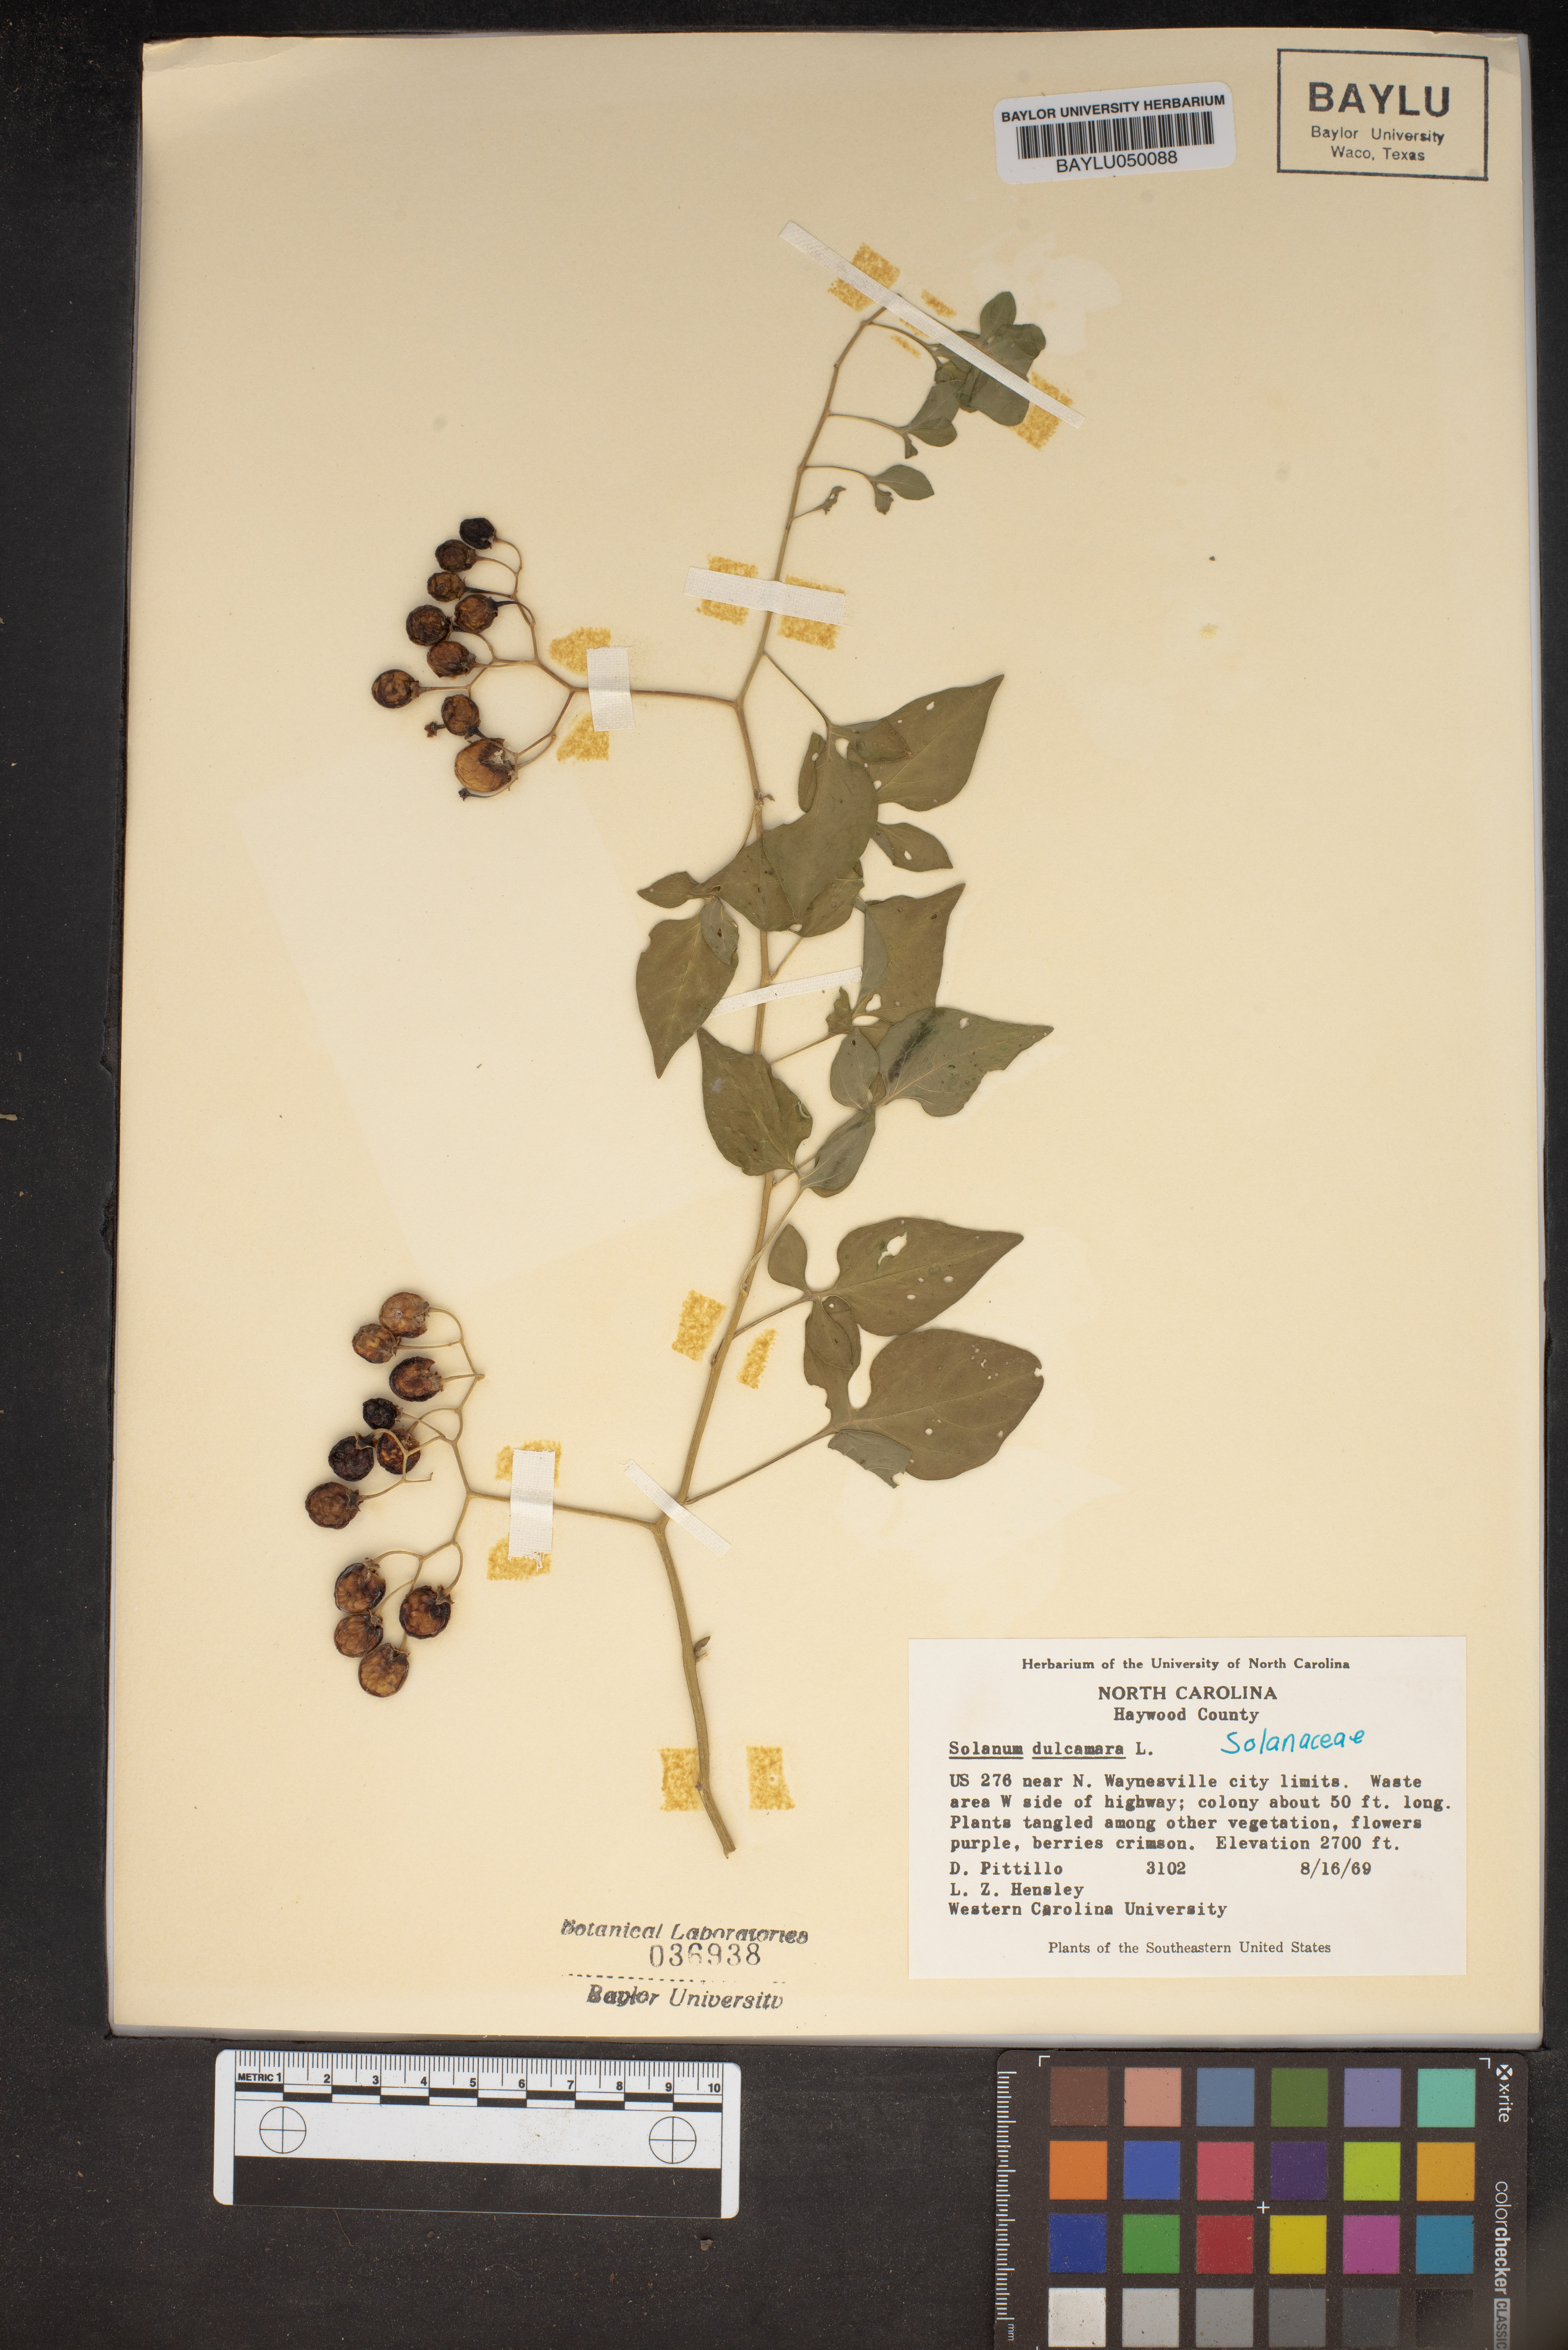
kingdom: Plantae
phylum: Tracheophyta
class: Magnoliopsida
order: Solanales
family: Solanaceae
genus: Solanum
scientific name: Solanum dulcamara
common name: Climbing nightshade
